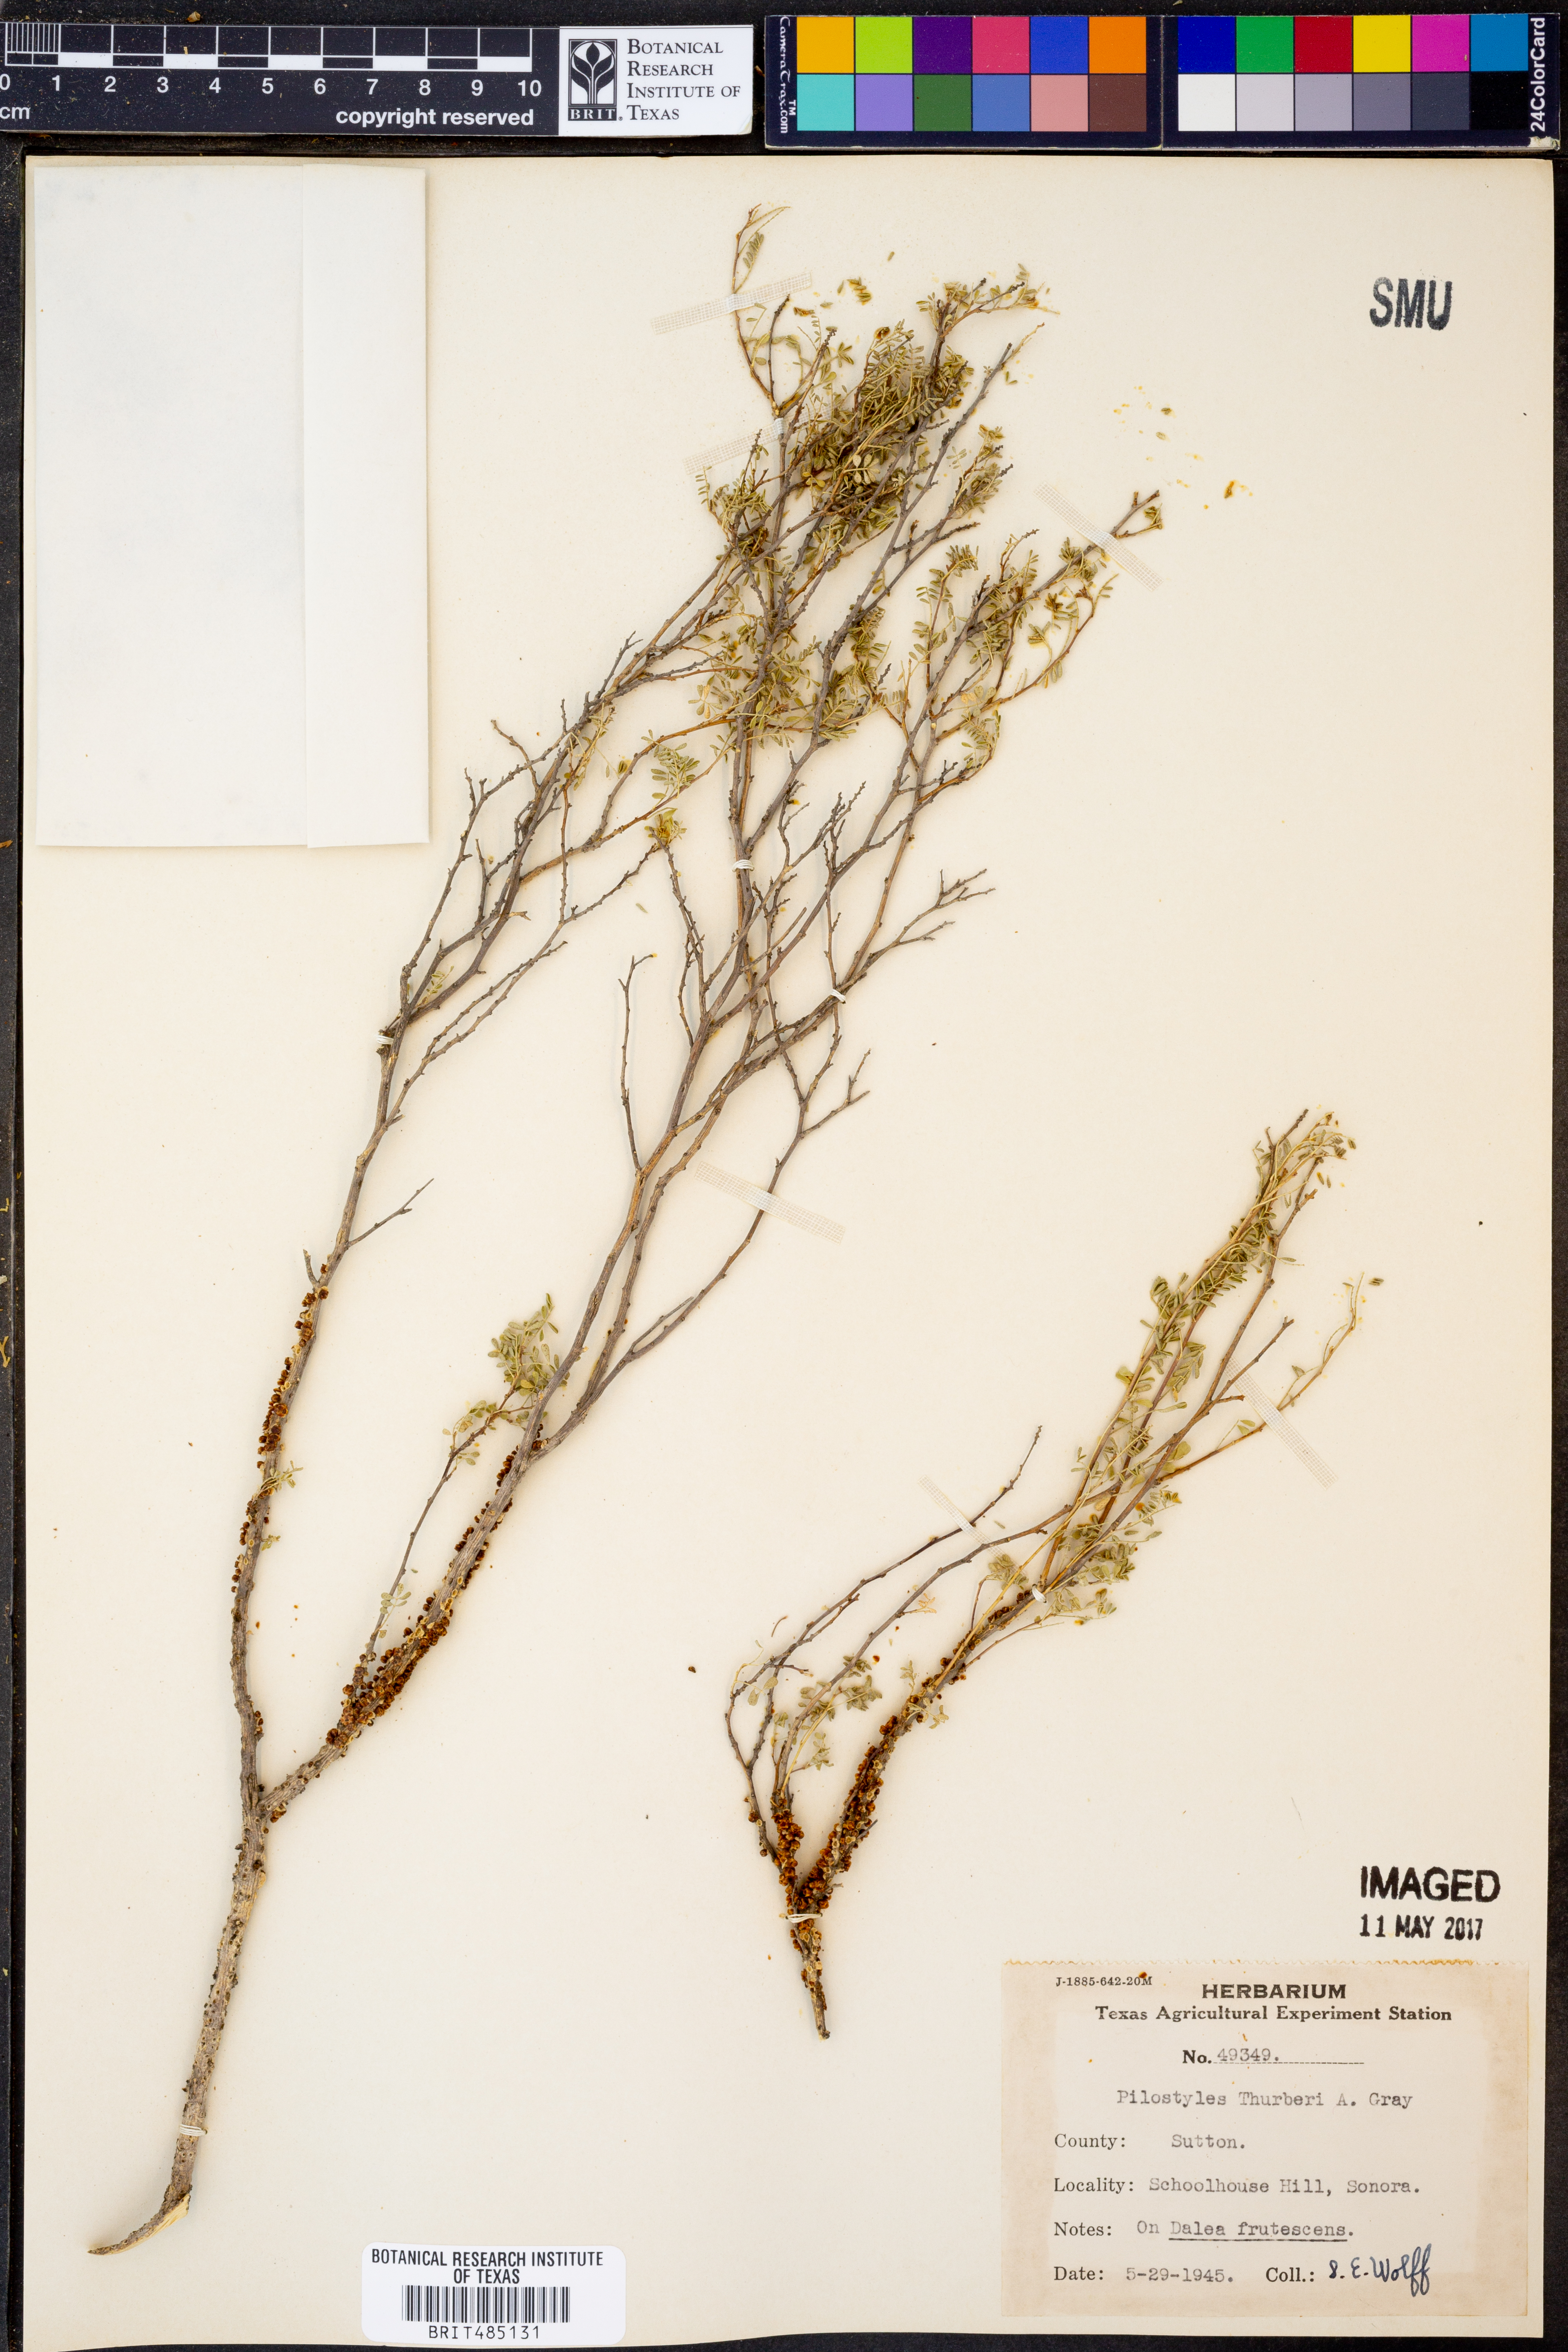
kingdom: Plantae
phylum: Tracheophyta
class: Magnoliopsida
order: Cucurbitales
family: Apodanthaceae
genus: Pilostyles
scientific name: Pilostyles thurberi
